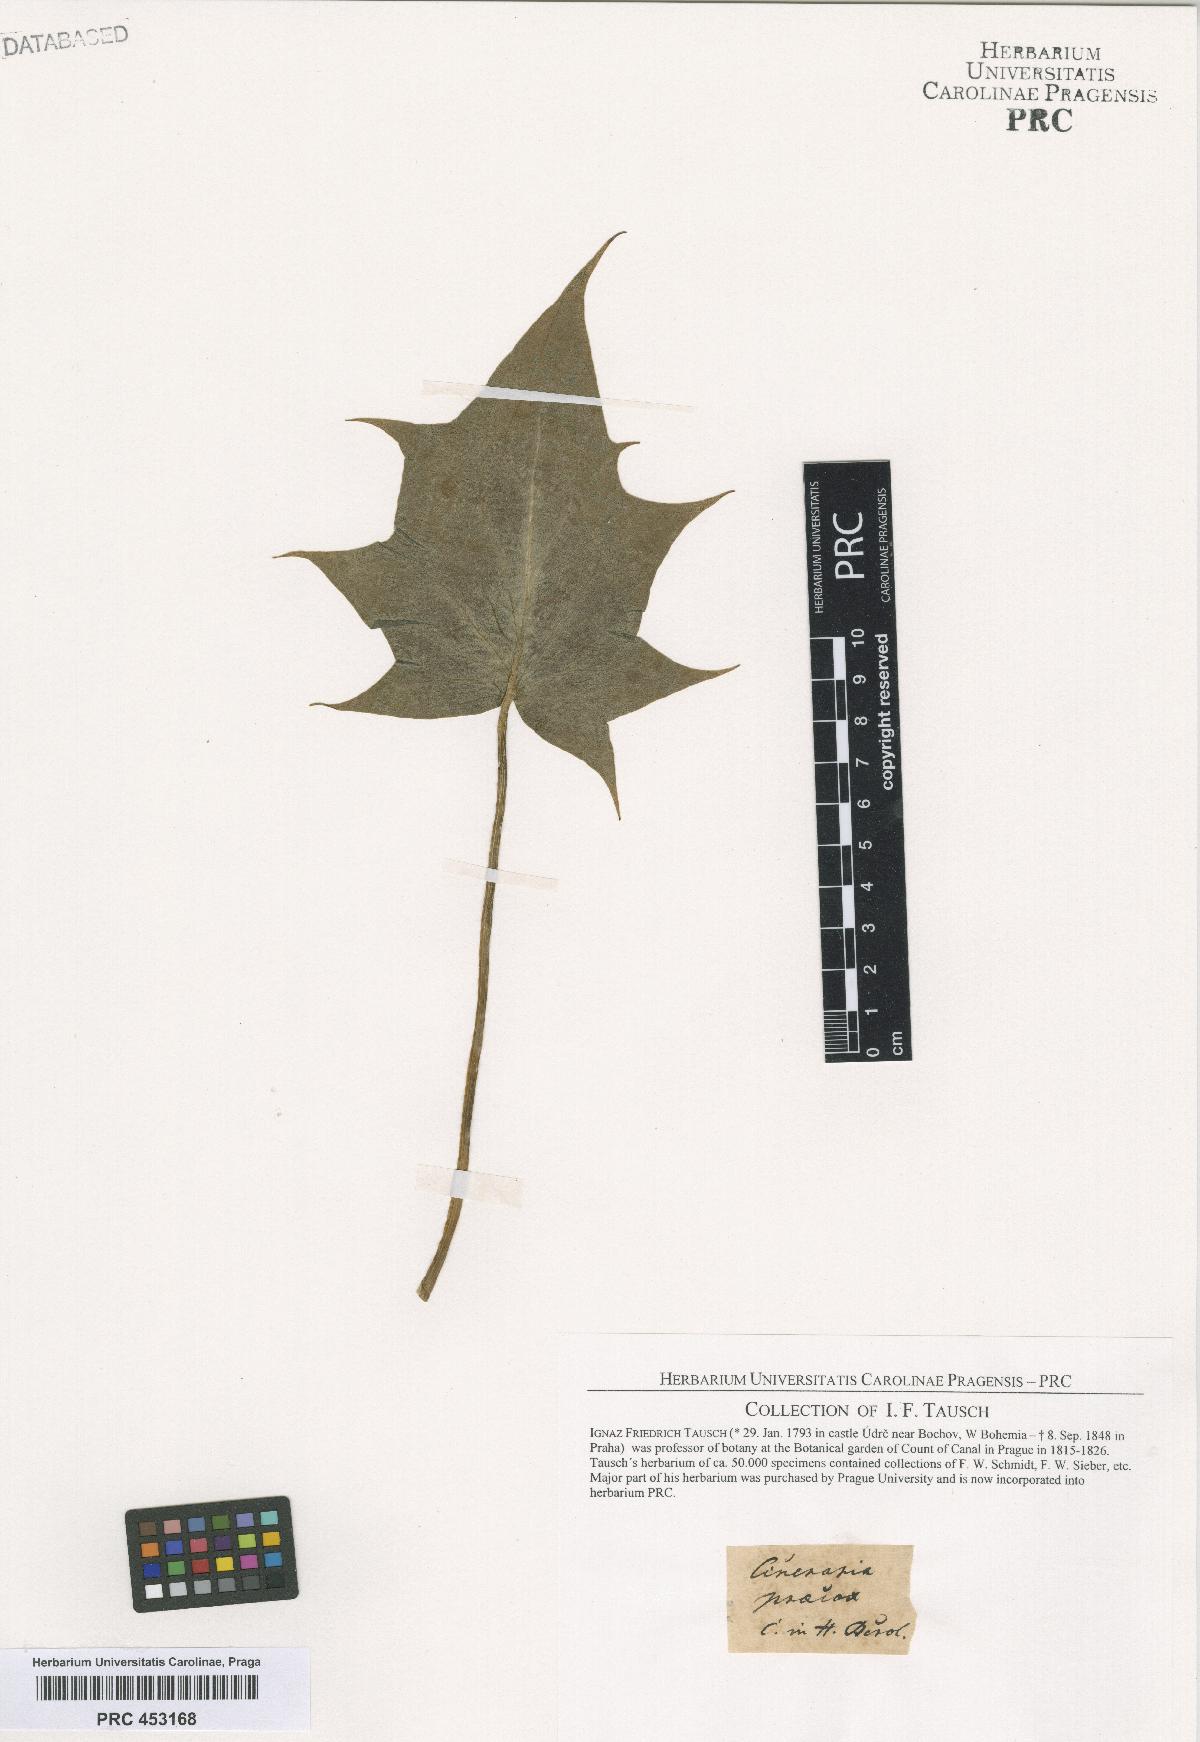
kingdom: Plantae
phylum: Tracheophyta
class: Magnoliopsida
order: Asterales
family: Asteraceae
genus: Cineraria
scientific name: Cineraria
